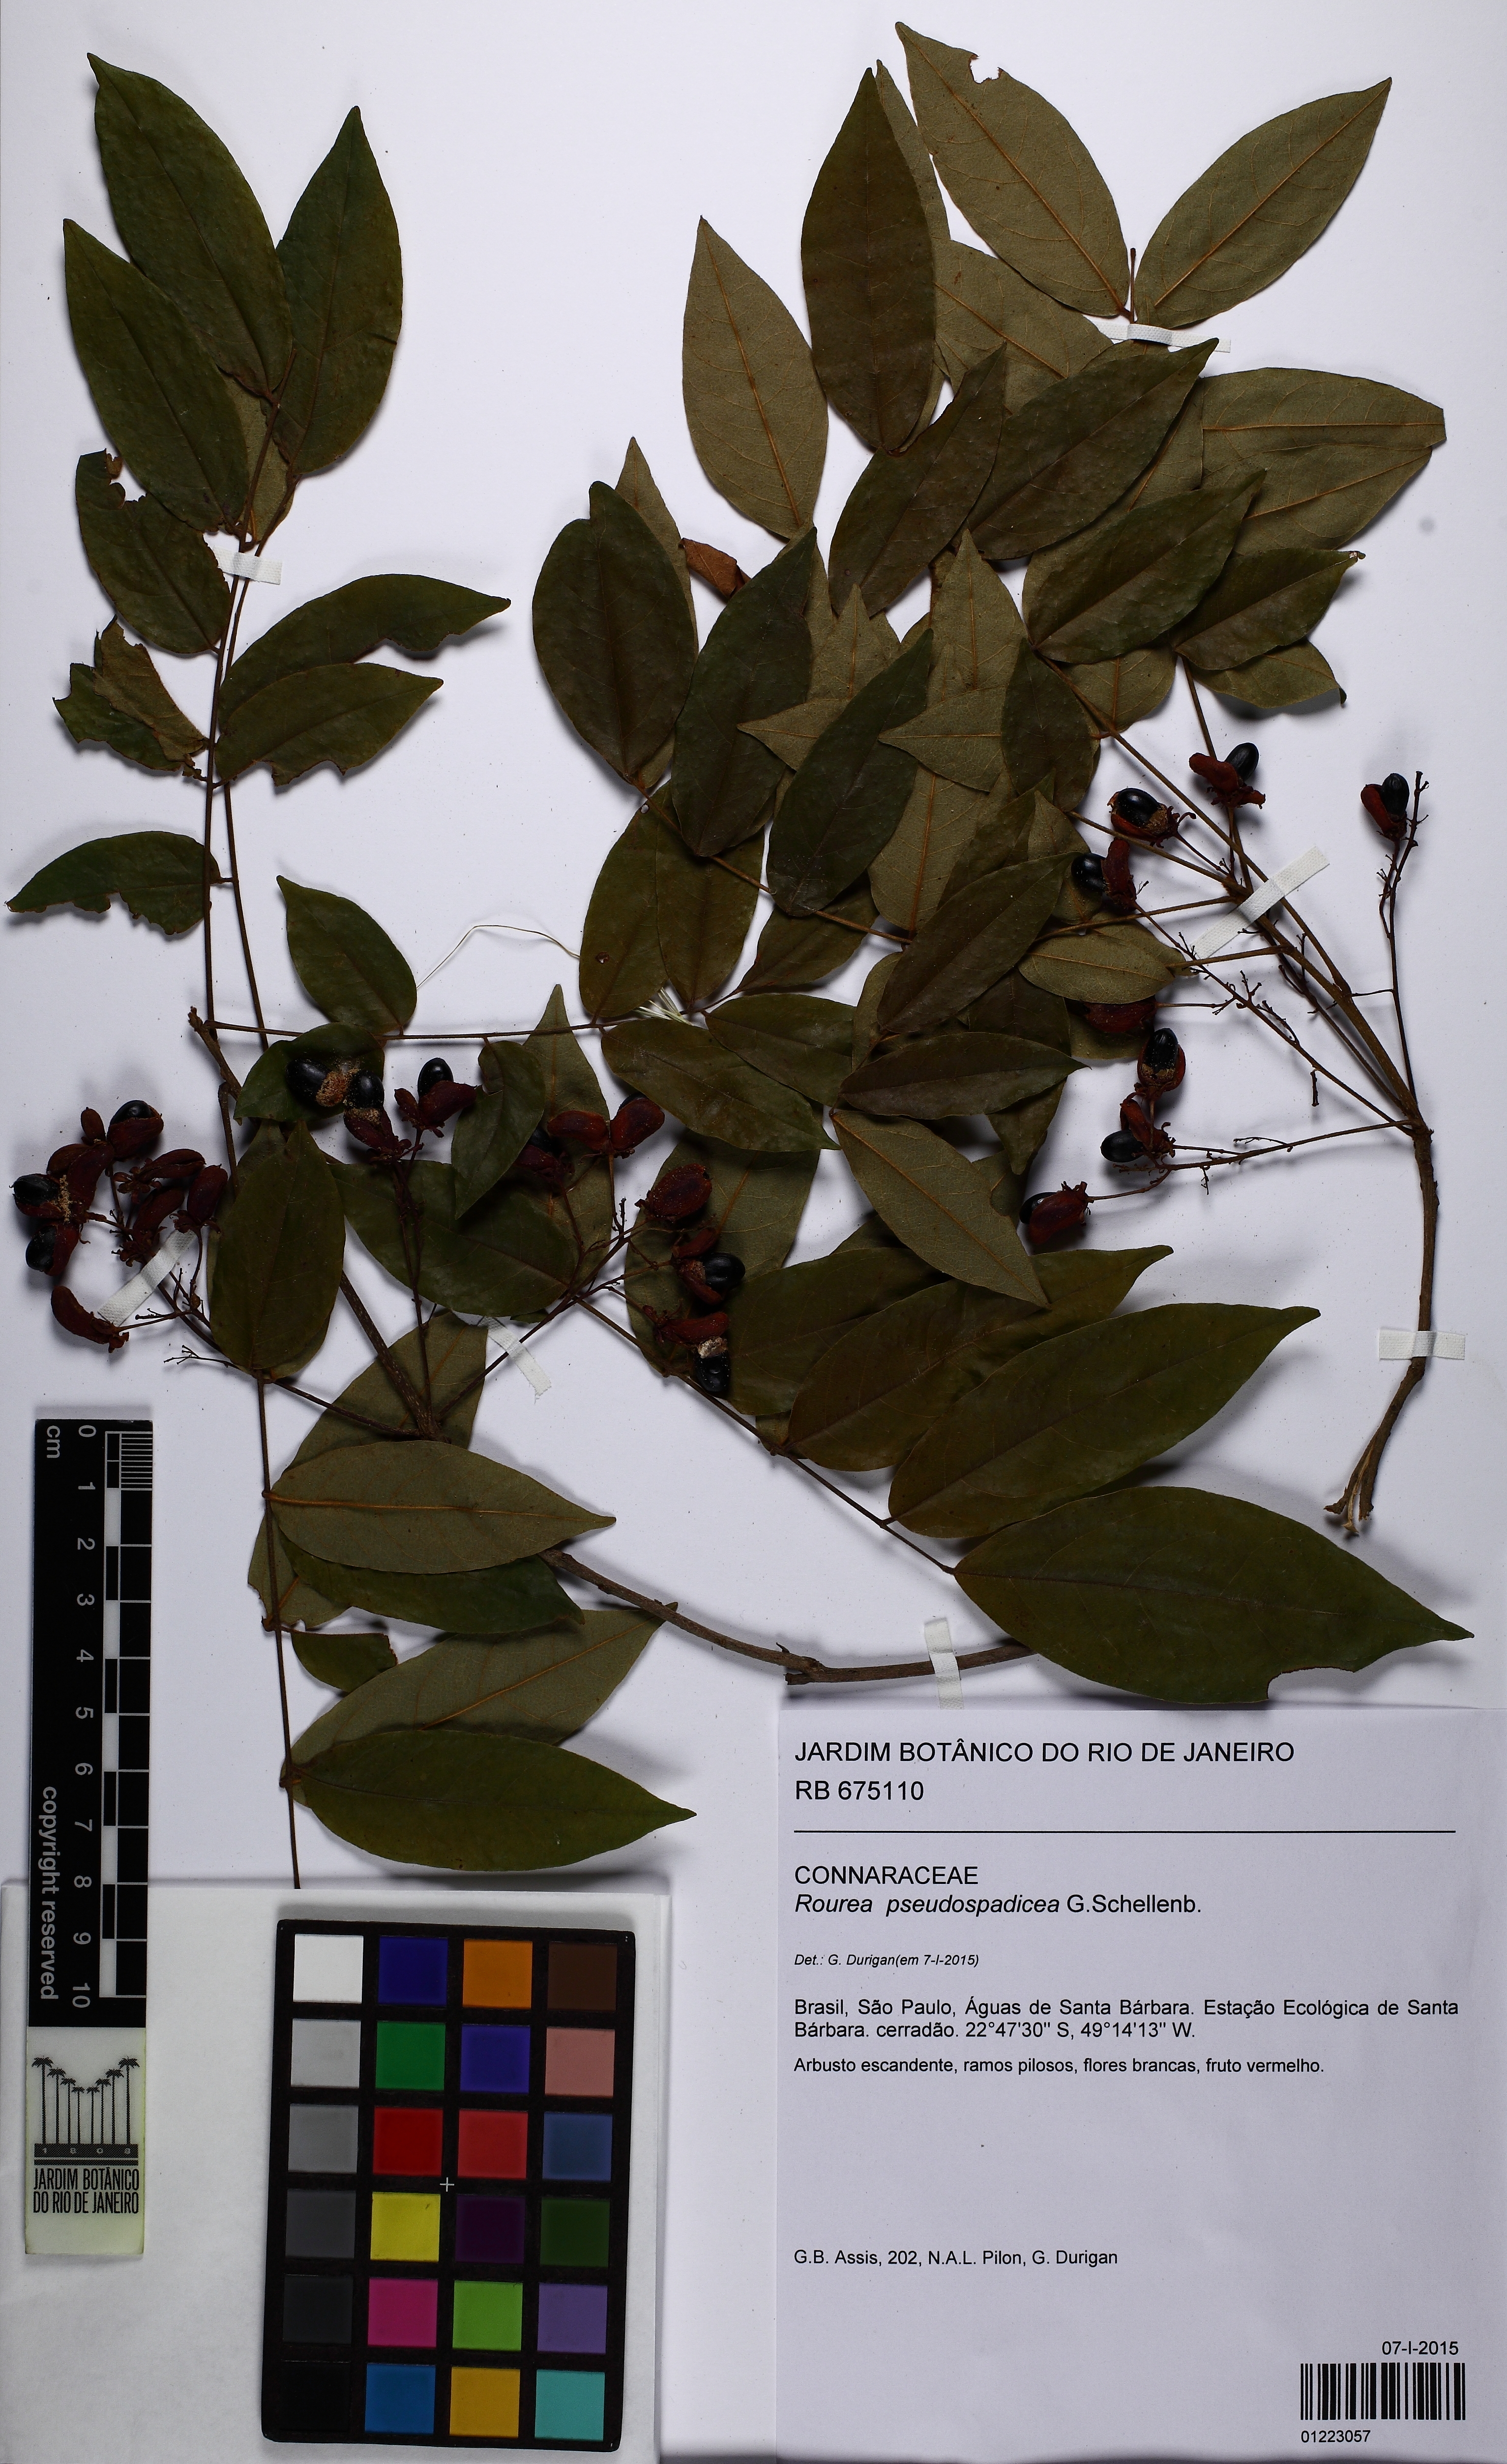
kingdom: Plantae
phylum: Tracheophyta
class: Magnoliopsida
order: Oxalidales
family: Connaraceae
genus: Rourea
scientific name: Rourea pseudospadicea
